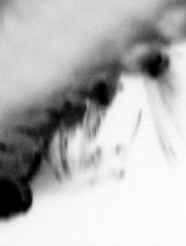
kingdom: Animalia
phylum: Annelida
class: Polychaeta
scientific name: Polychaeta
